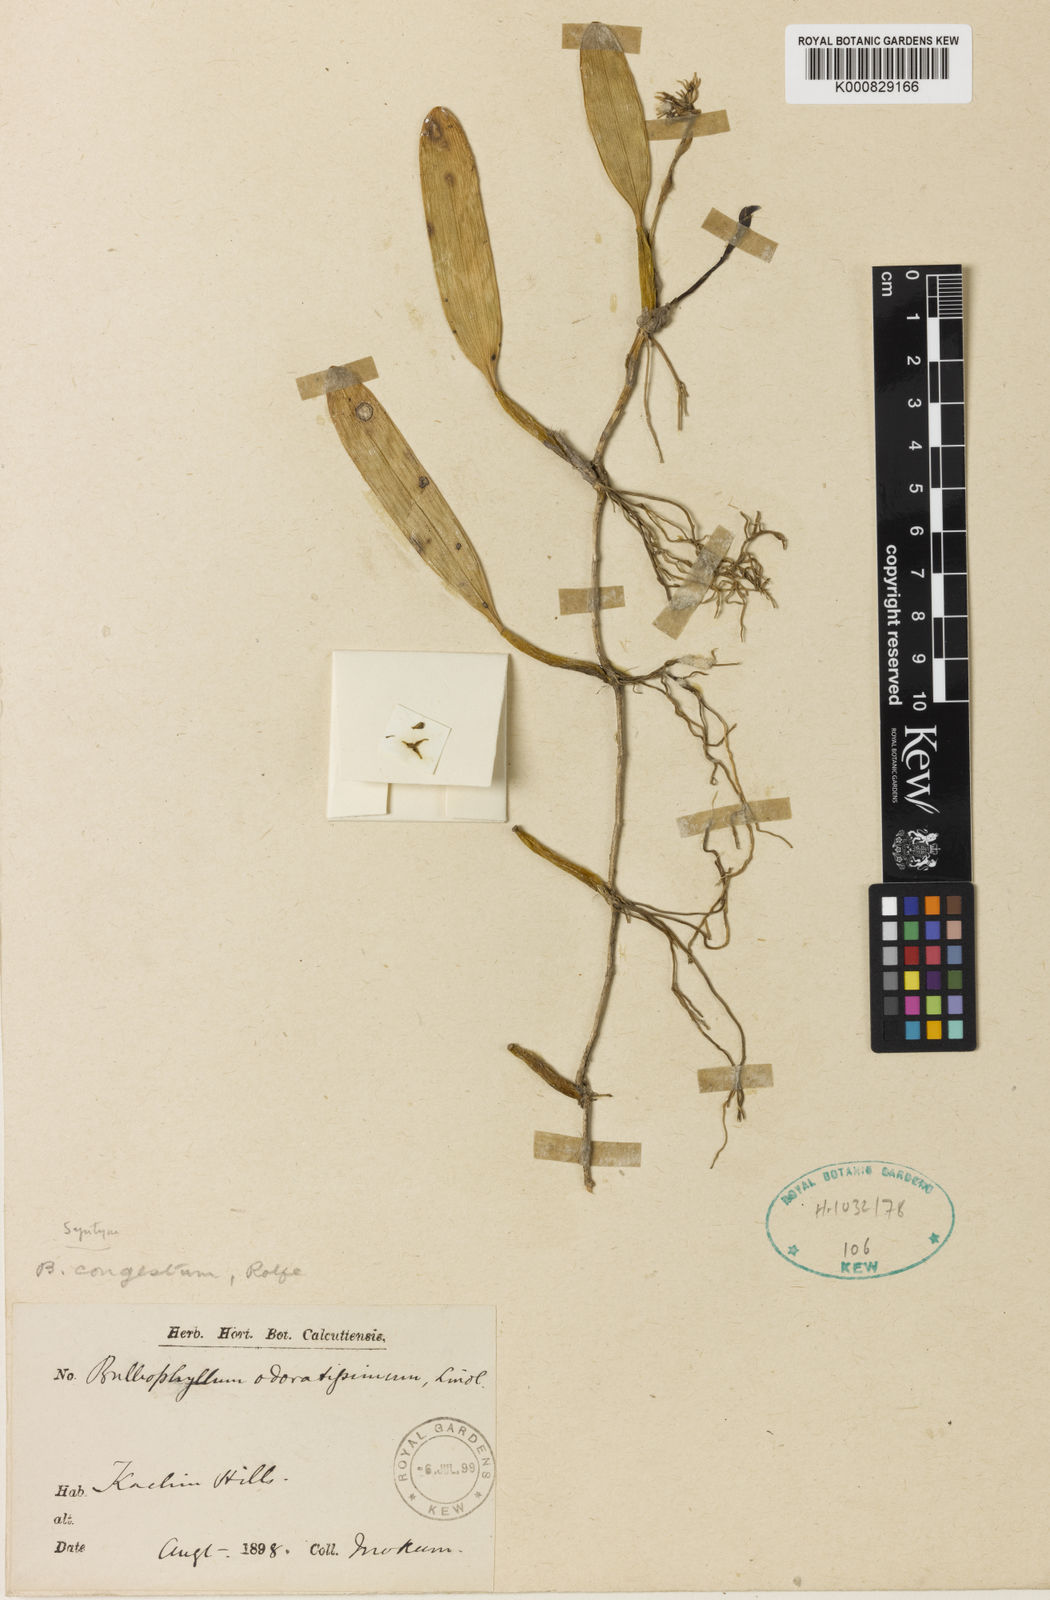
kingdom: Plantae
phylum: Tracheophyta
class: Liliopsida
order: Asparagales
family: Orchidaceae
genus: Bulbophyllum
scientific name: Bulbophyllum odoratissimum
